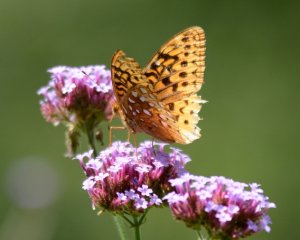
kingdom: Animalia
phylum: Arthropoda
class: Insecta
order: Lepidoptera
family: Nymphalidae
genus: Speyeria
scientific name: Speyeria cybele
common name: Great Spangled Fritillary
